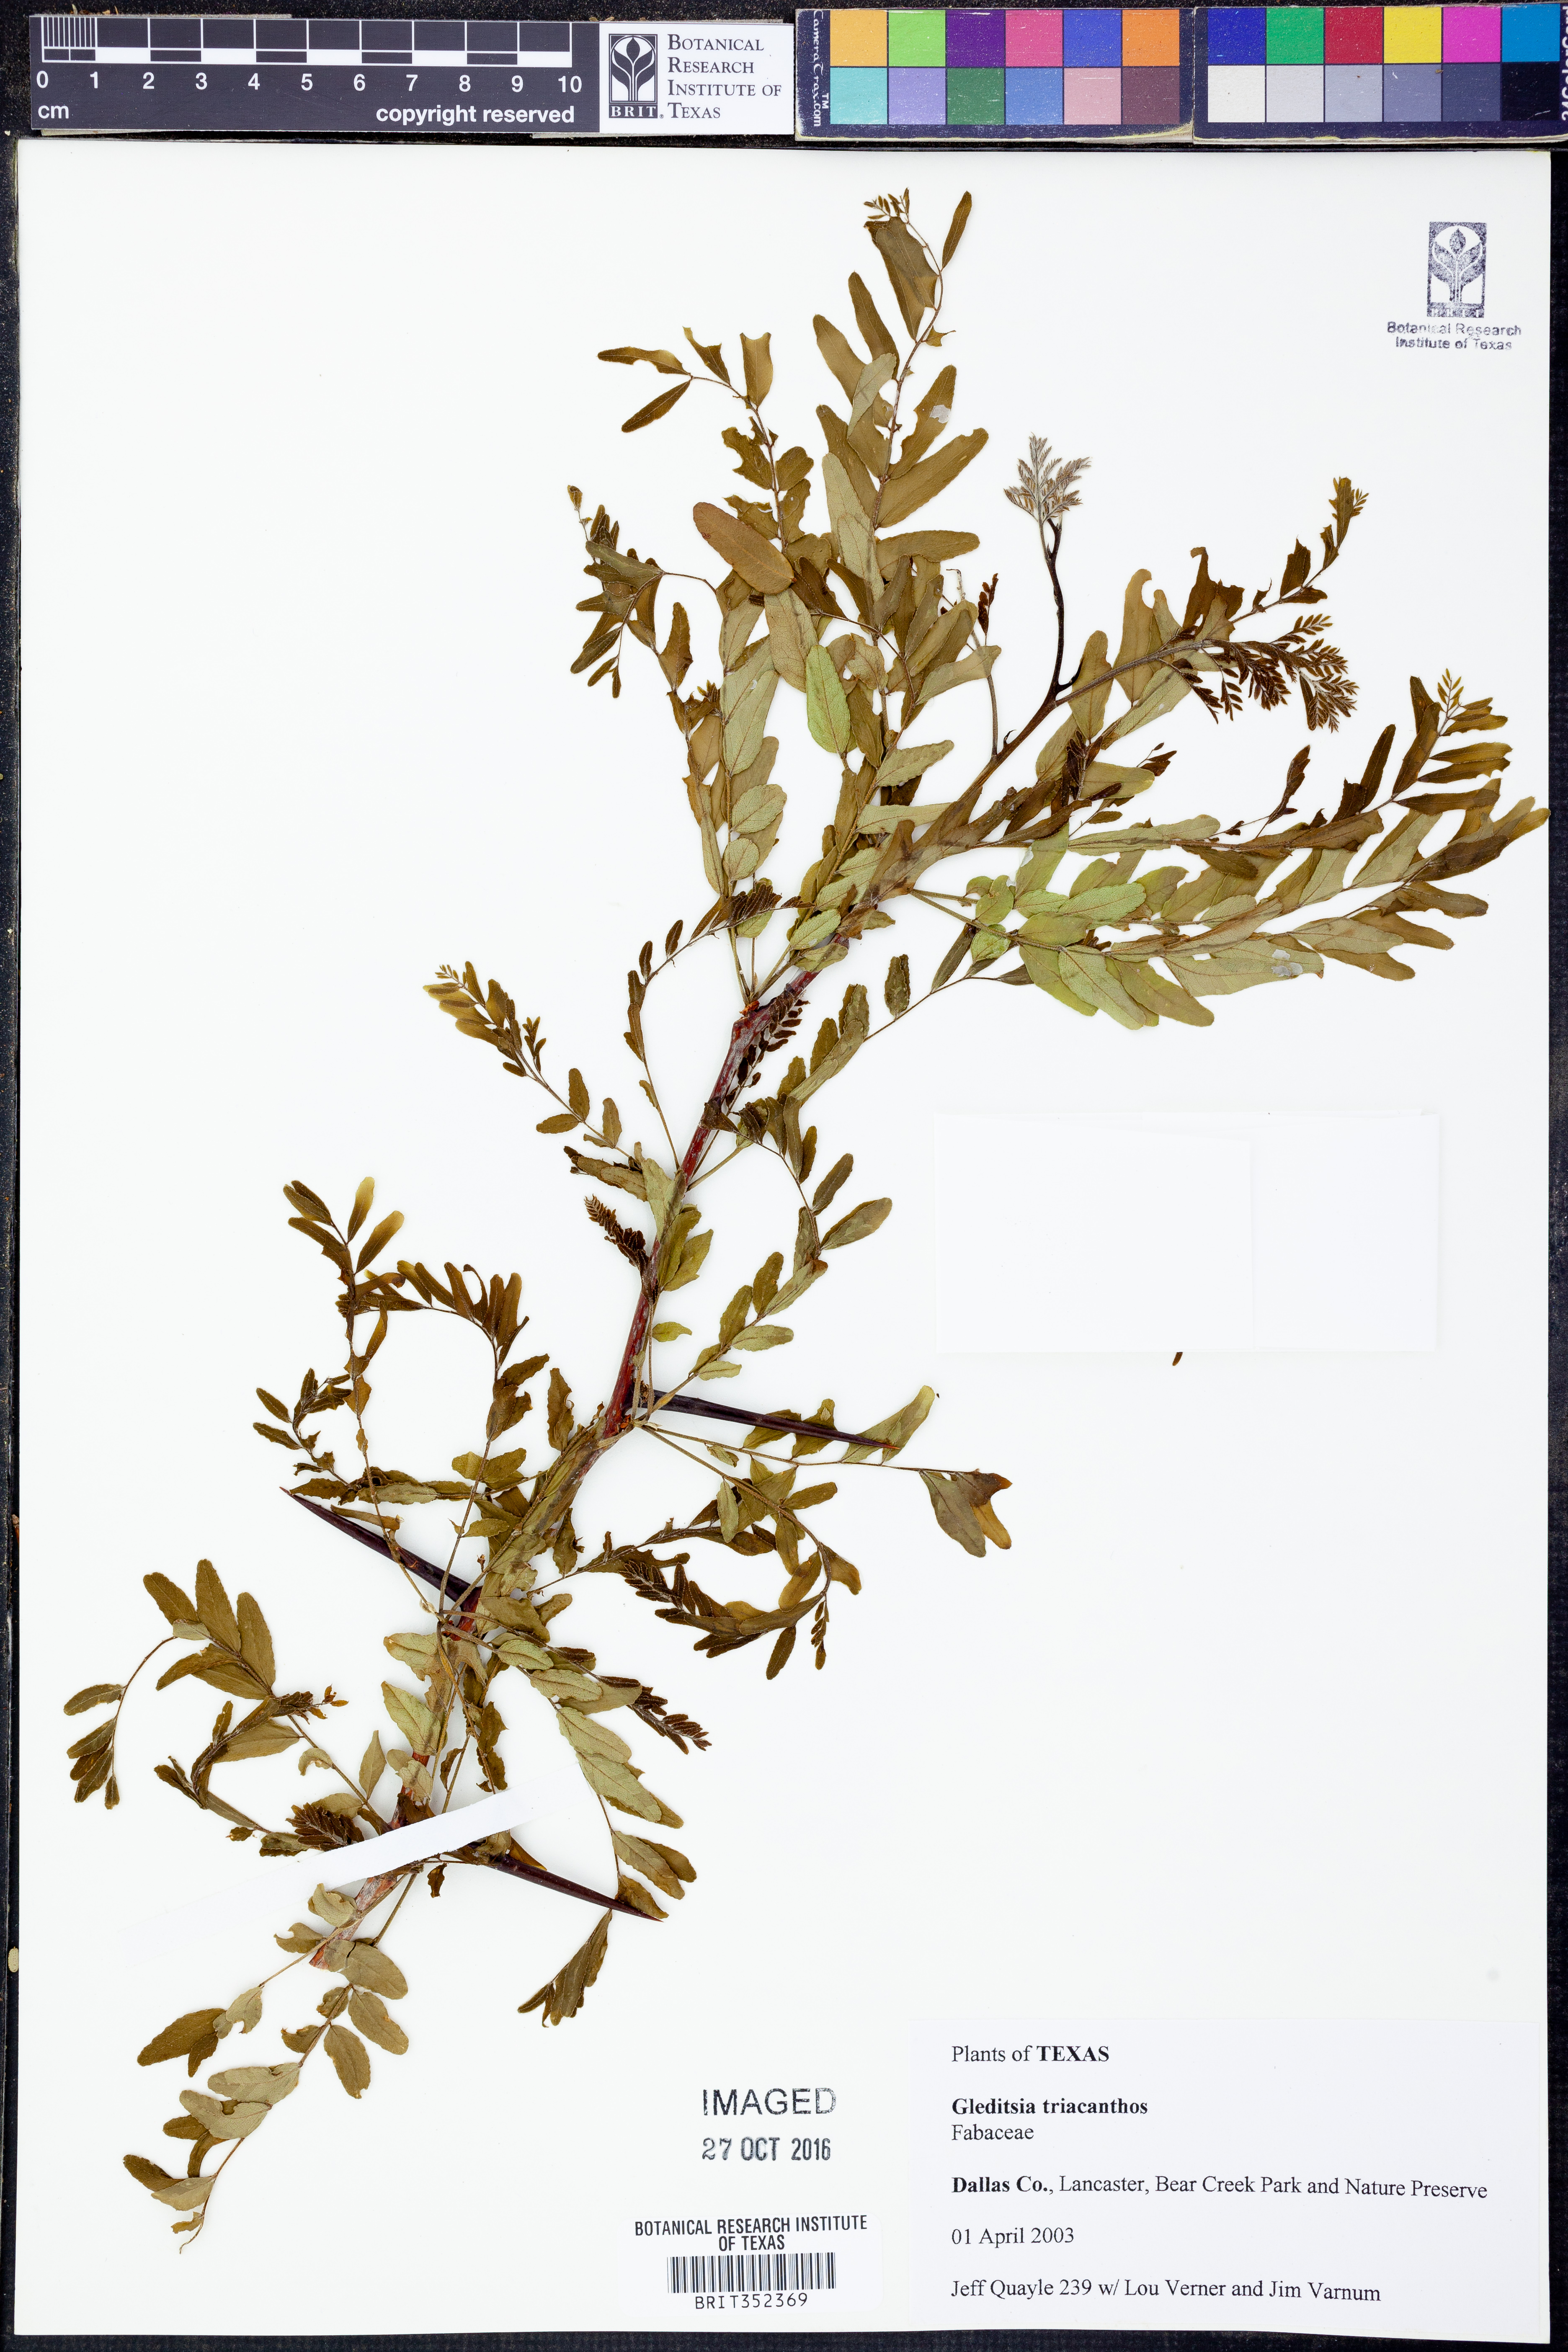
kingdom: Plantae
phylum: Tracheophyta
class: Magnoliopsida
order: Fabales
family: Fabaceae
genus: Gleditsia
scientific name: Gleditsia triacanthos
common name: Common honeylocust
